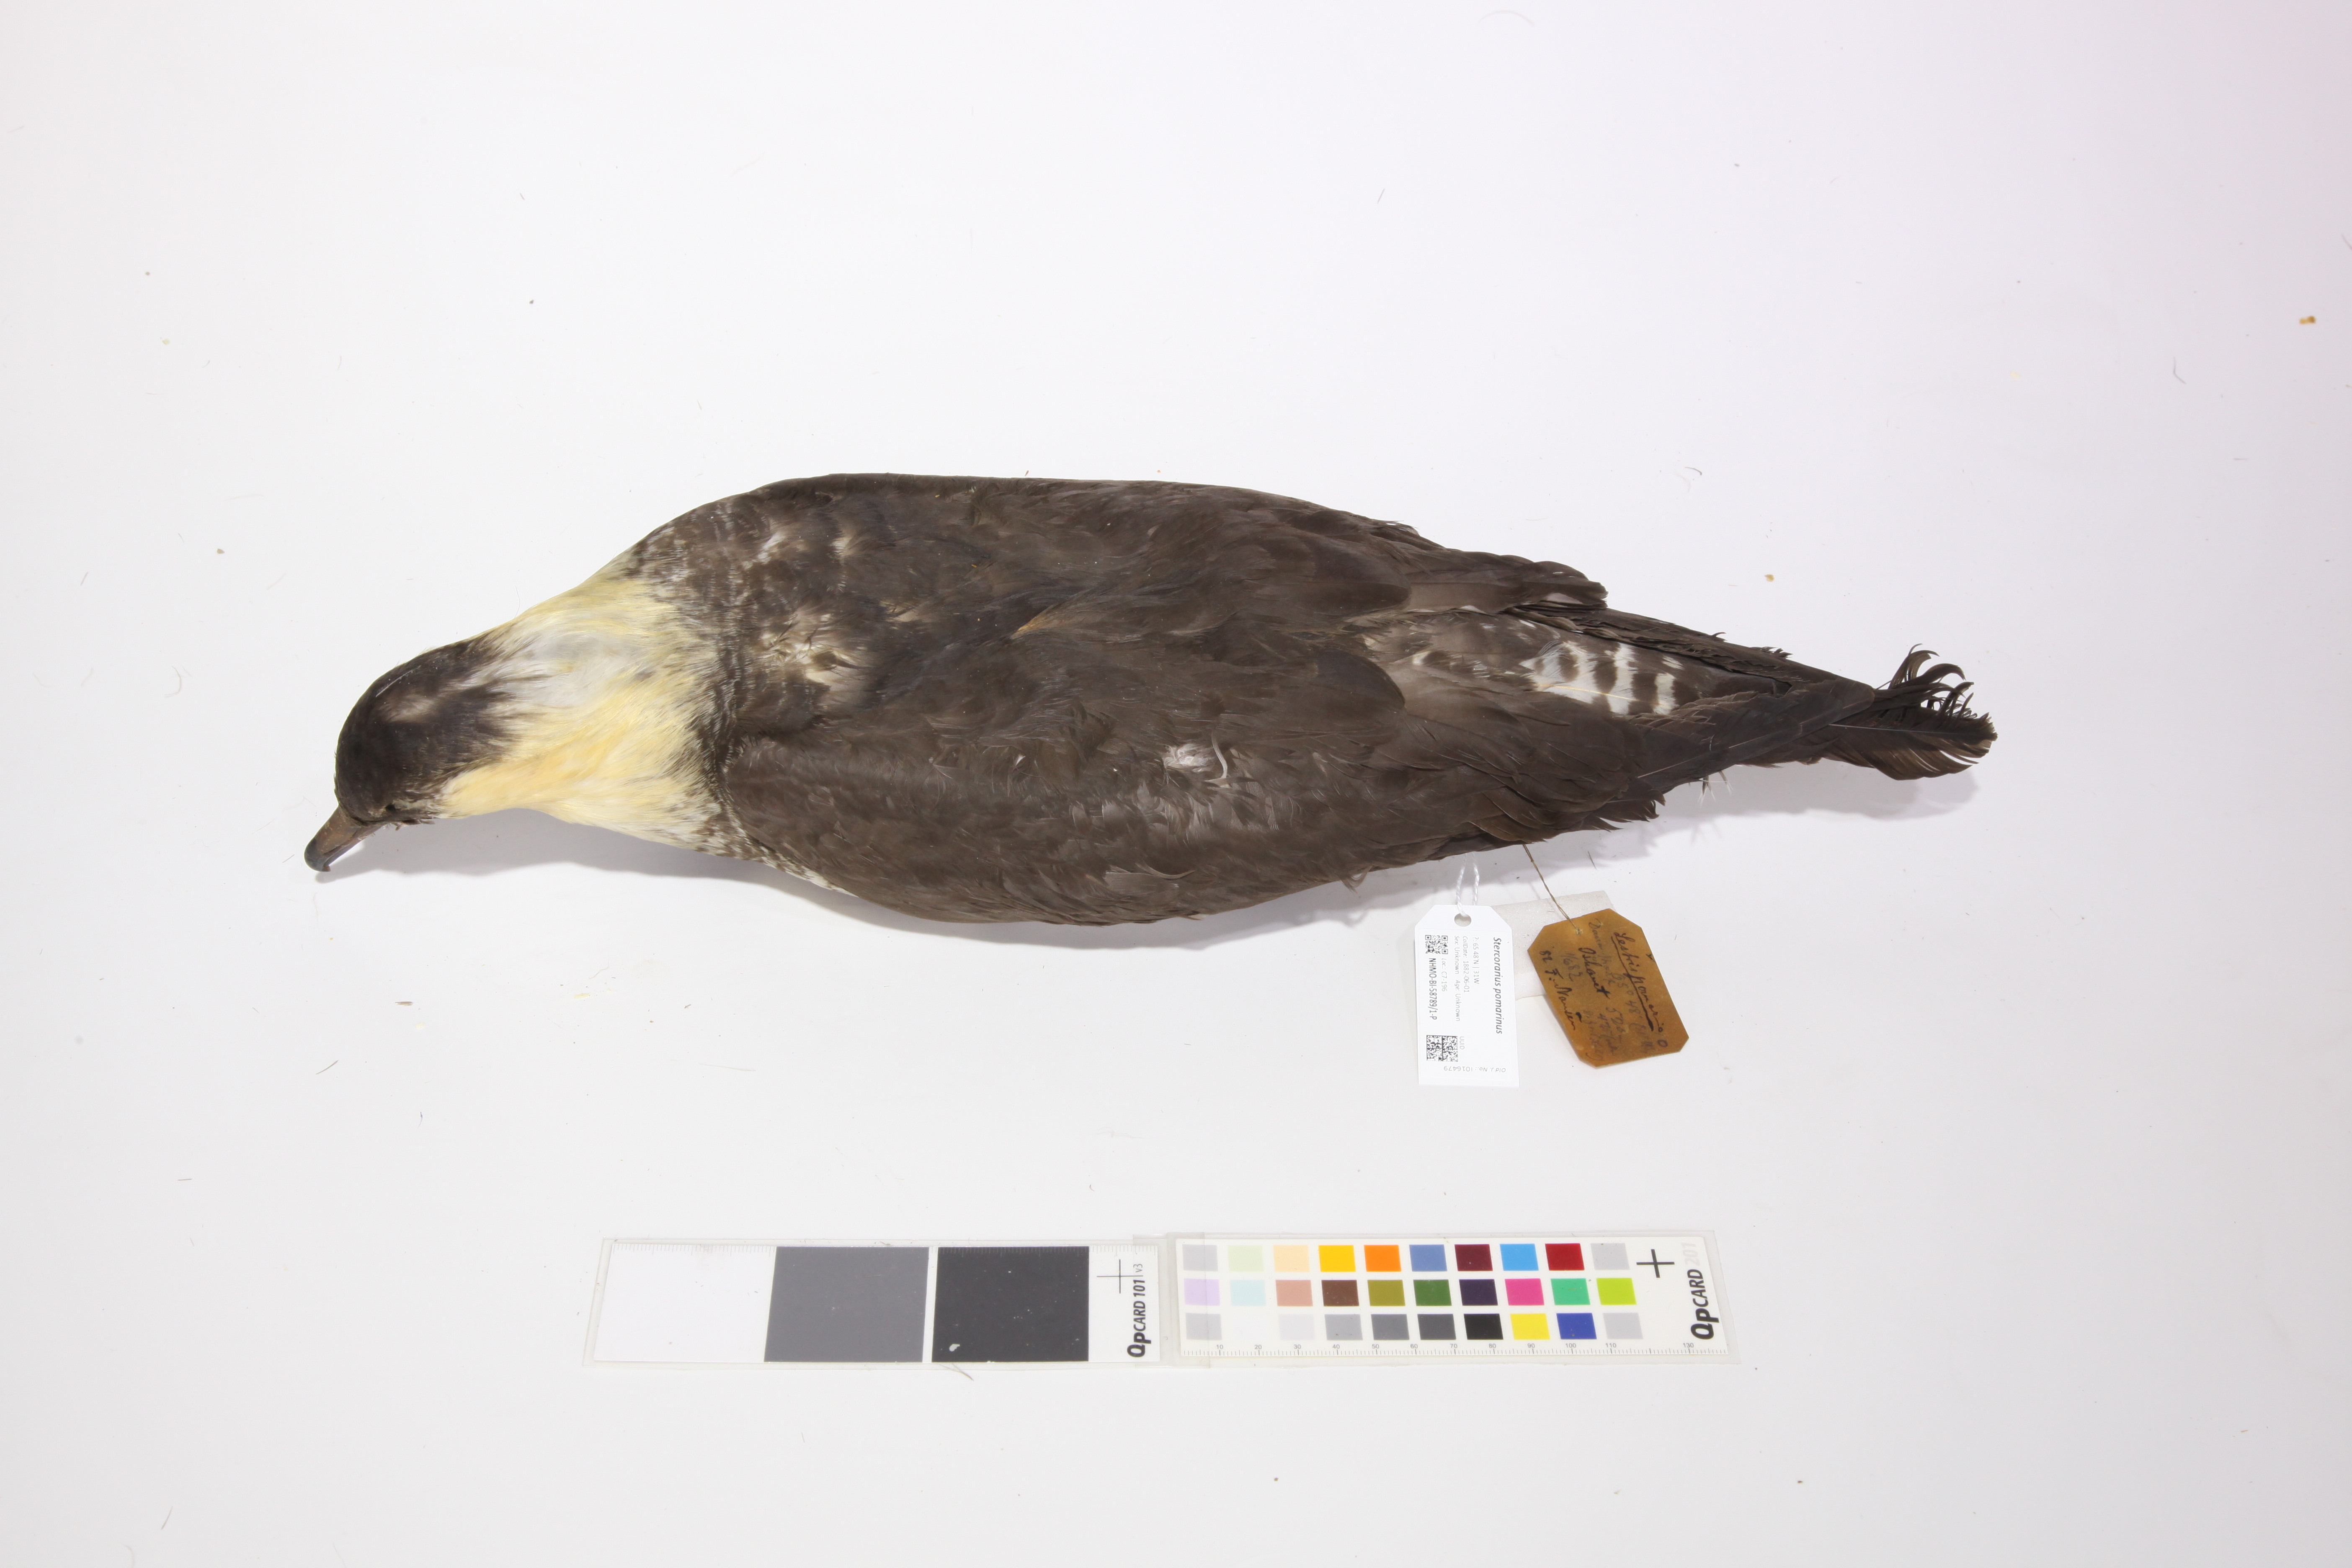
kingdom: Animalia
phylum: Chordata
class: Aves
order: Charadriiformes
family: Stercorariidae
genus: Stercorarius
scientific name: Stercorarius pomarinus
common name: Pomarine jaeger
